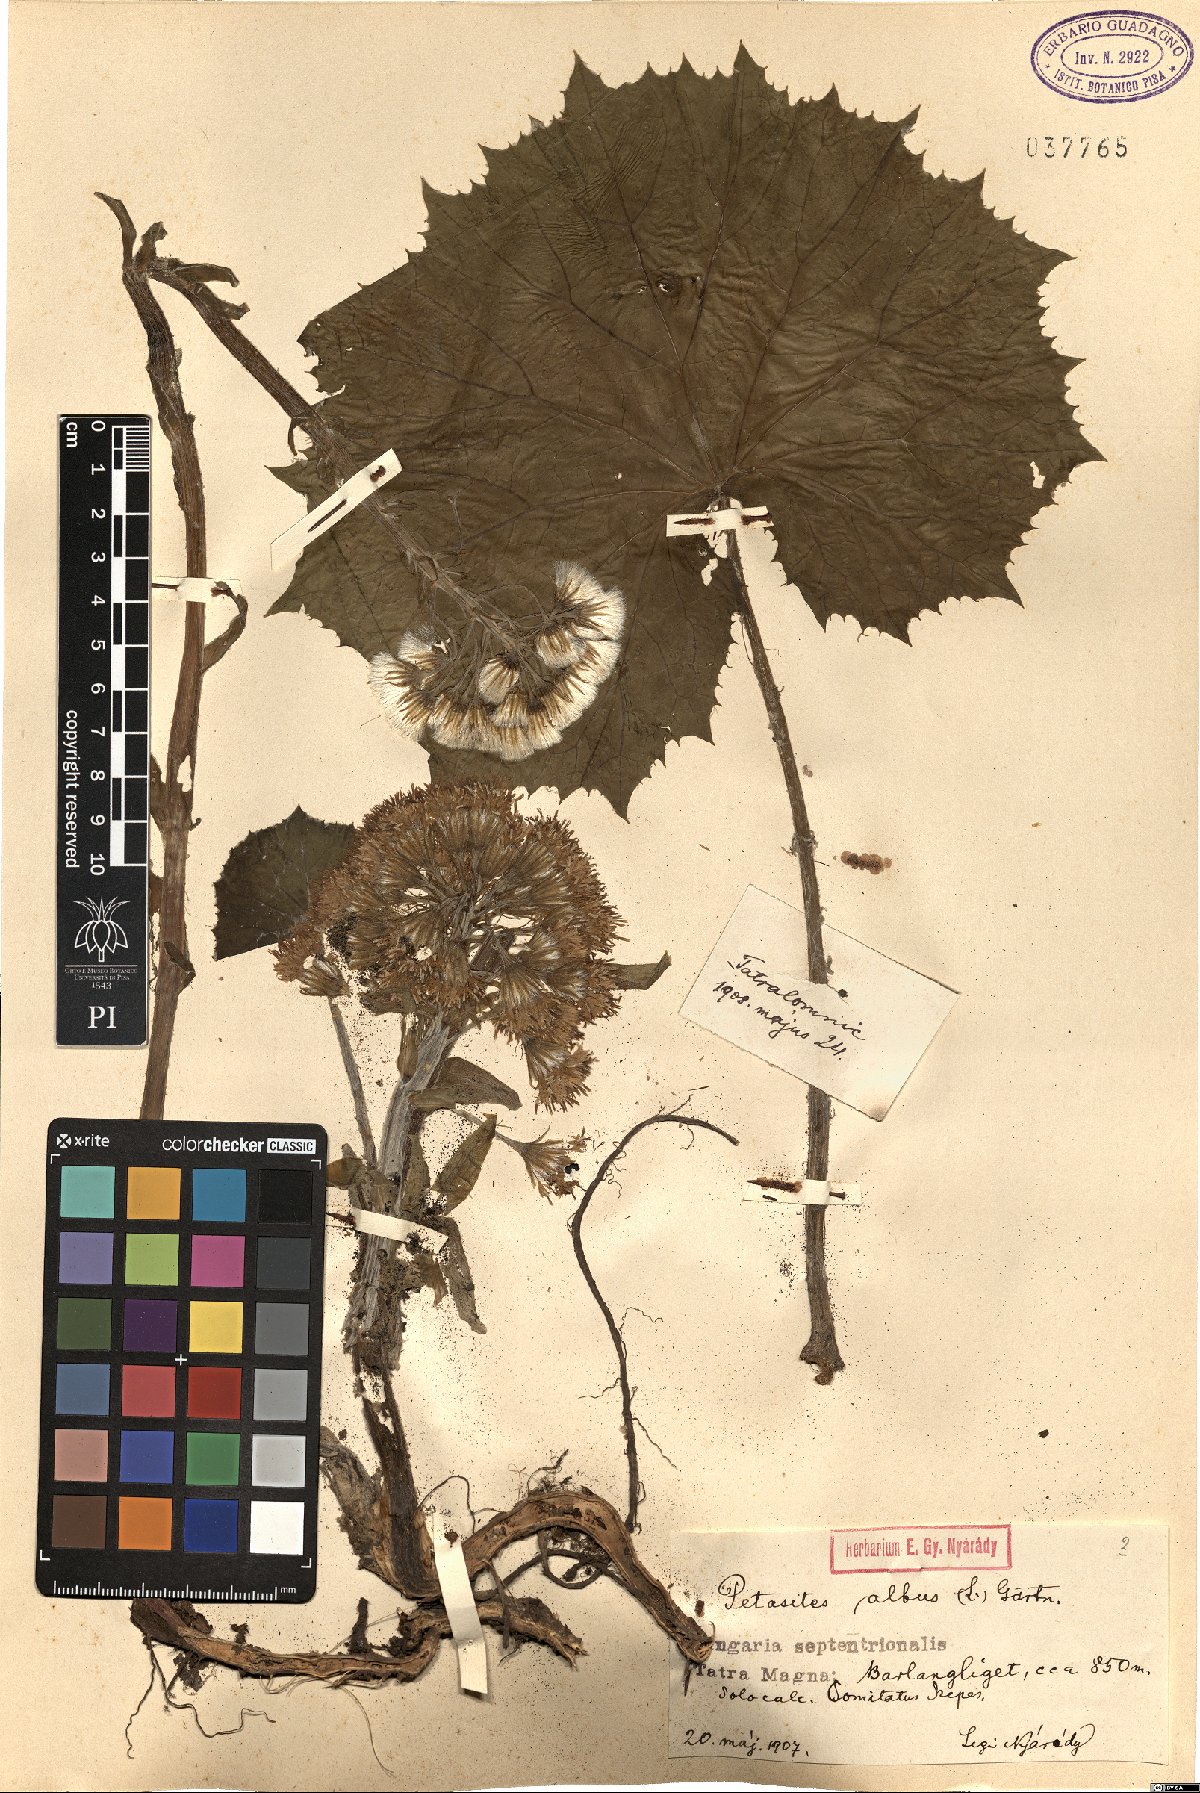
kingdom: Plantae
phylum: Tracheophyta
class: Magnoliopsida
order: Asterales
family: Asteraceae
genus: Petasites
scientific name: Petasites albus
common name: White butterbur
